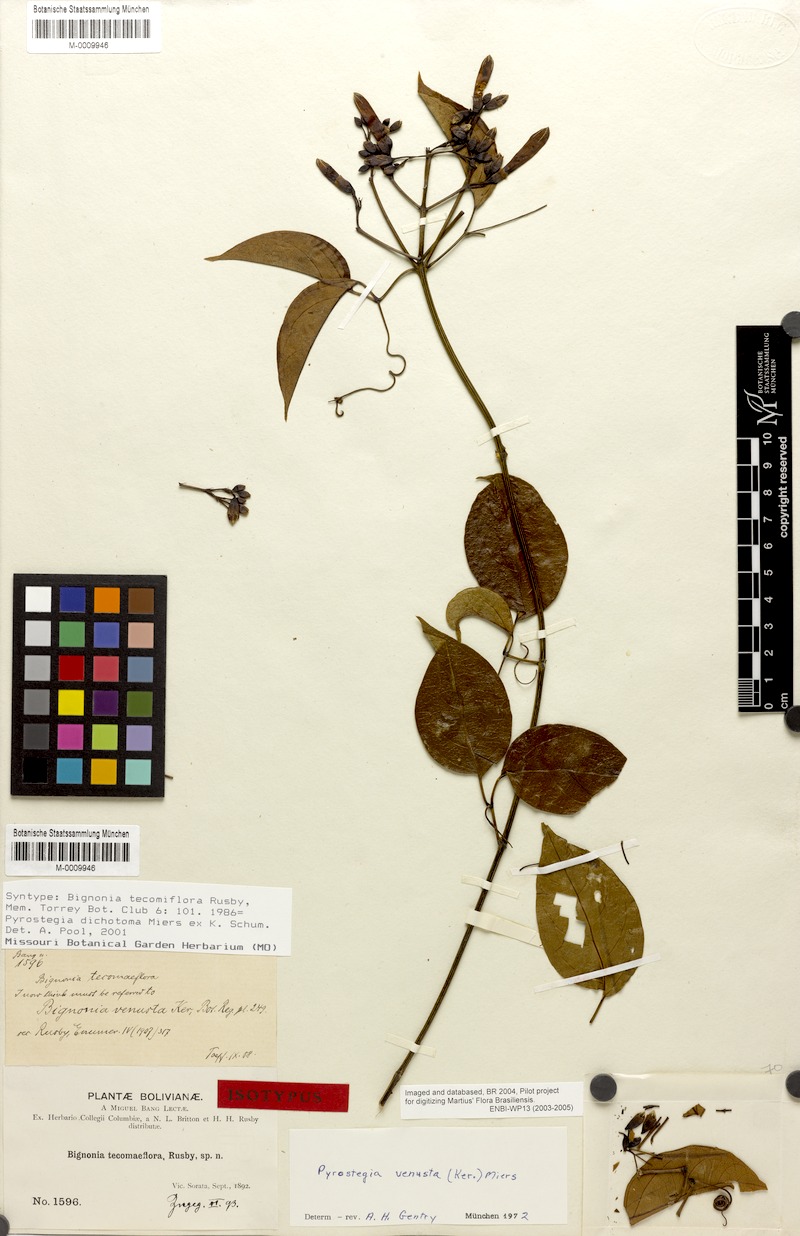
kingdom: Plantae
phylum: Tracheophyta
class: Magnoliopsida
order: Lamiales
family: Bignoniaceae
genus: Pyrostegia
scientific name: Pyrostegia venusta
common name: Flamevine
